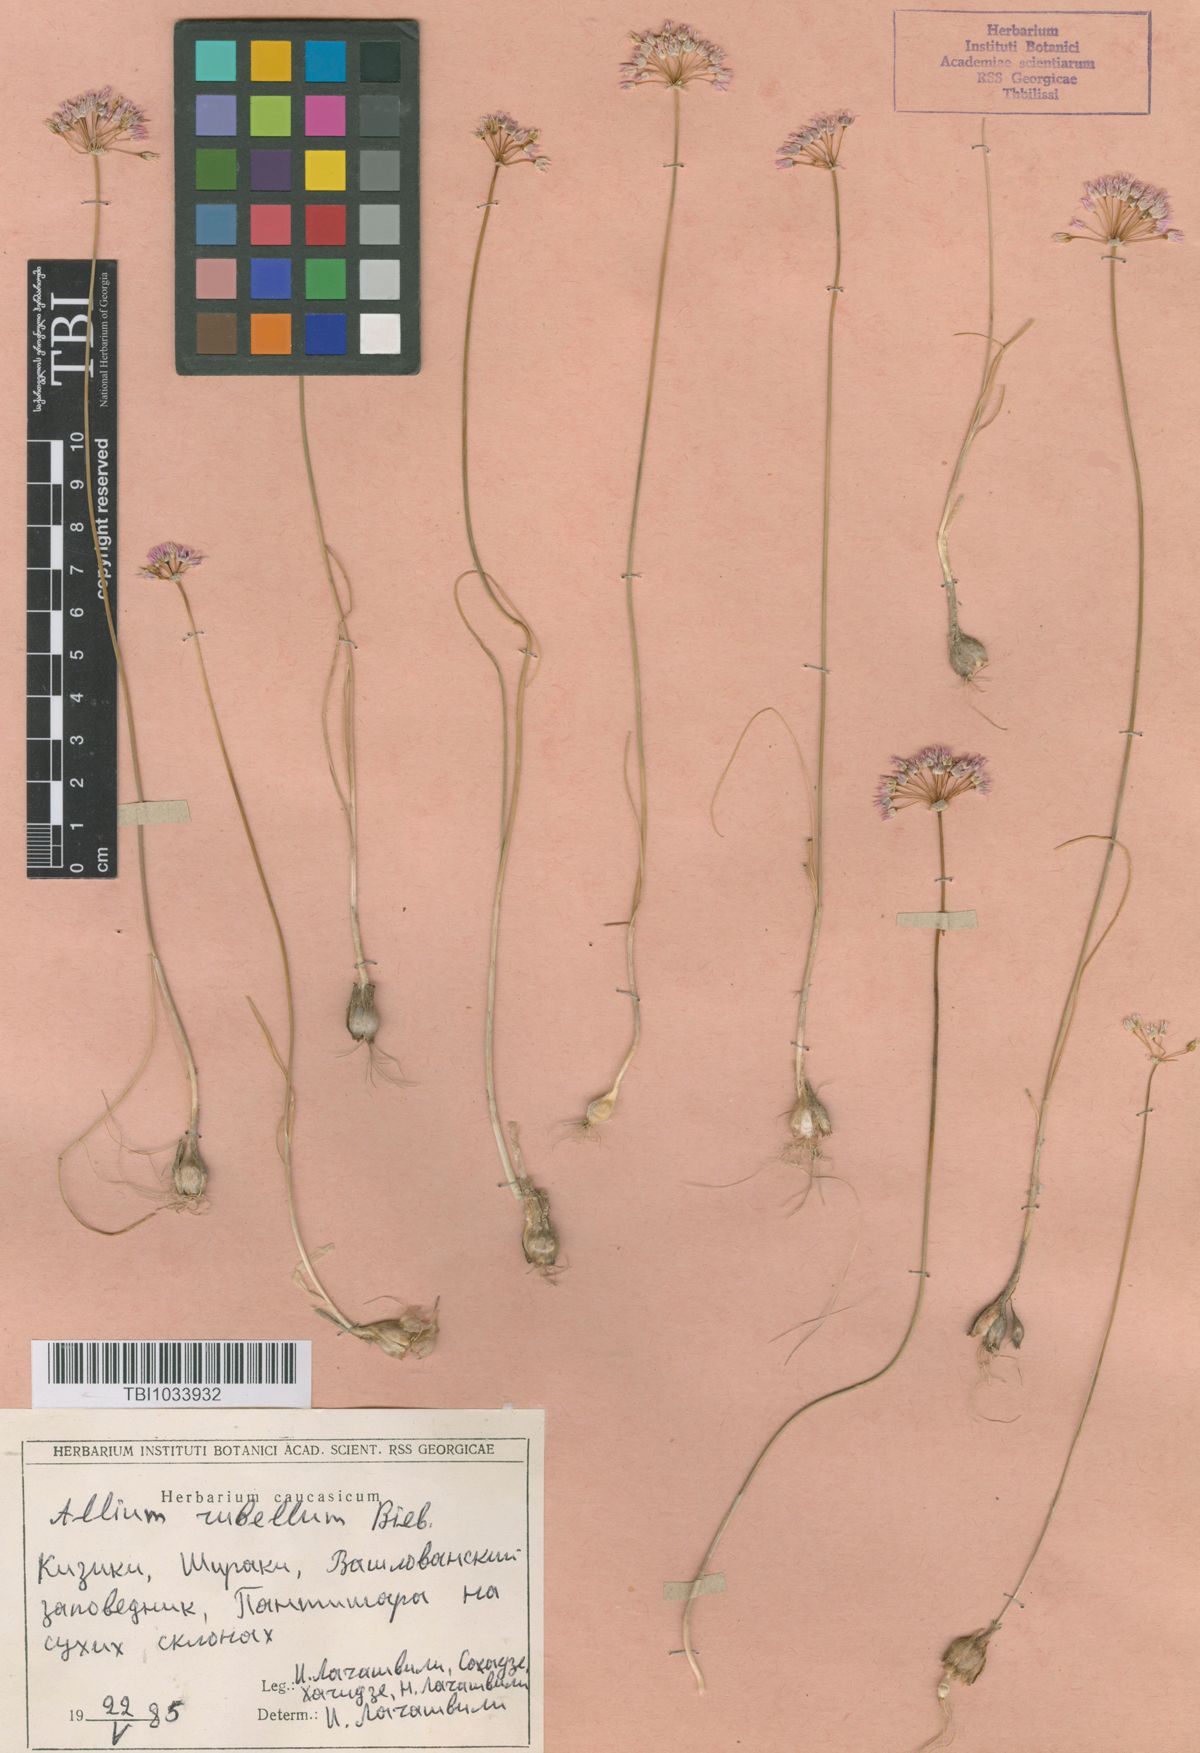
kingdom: Plantae
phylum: Tracheophyta
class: Liliopsida
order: Asparagales
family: Amaryllidaceae
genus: Allium
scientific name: Allium rubellum
